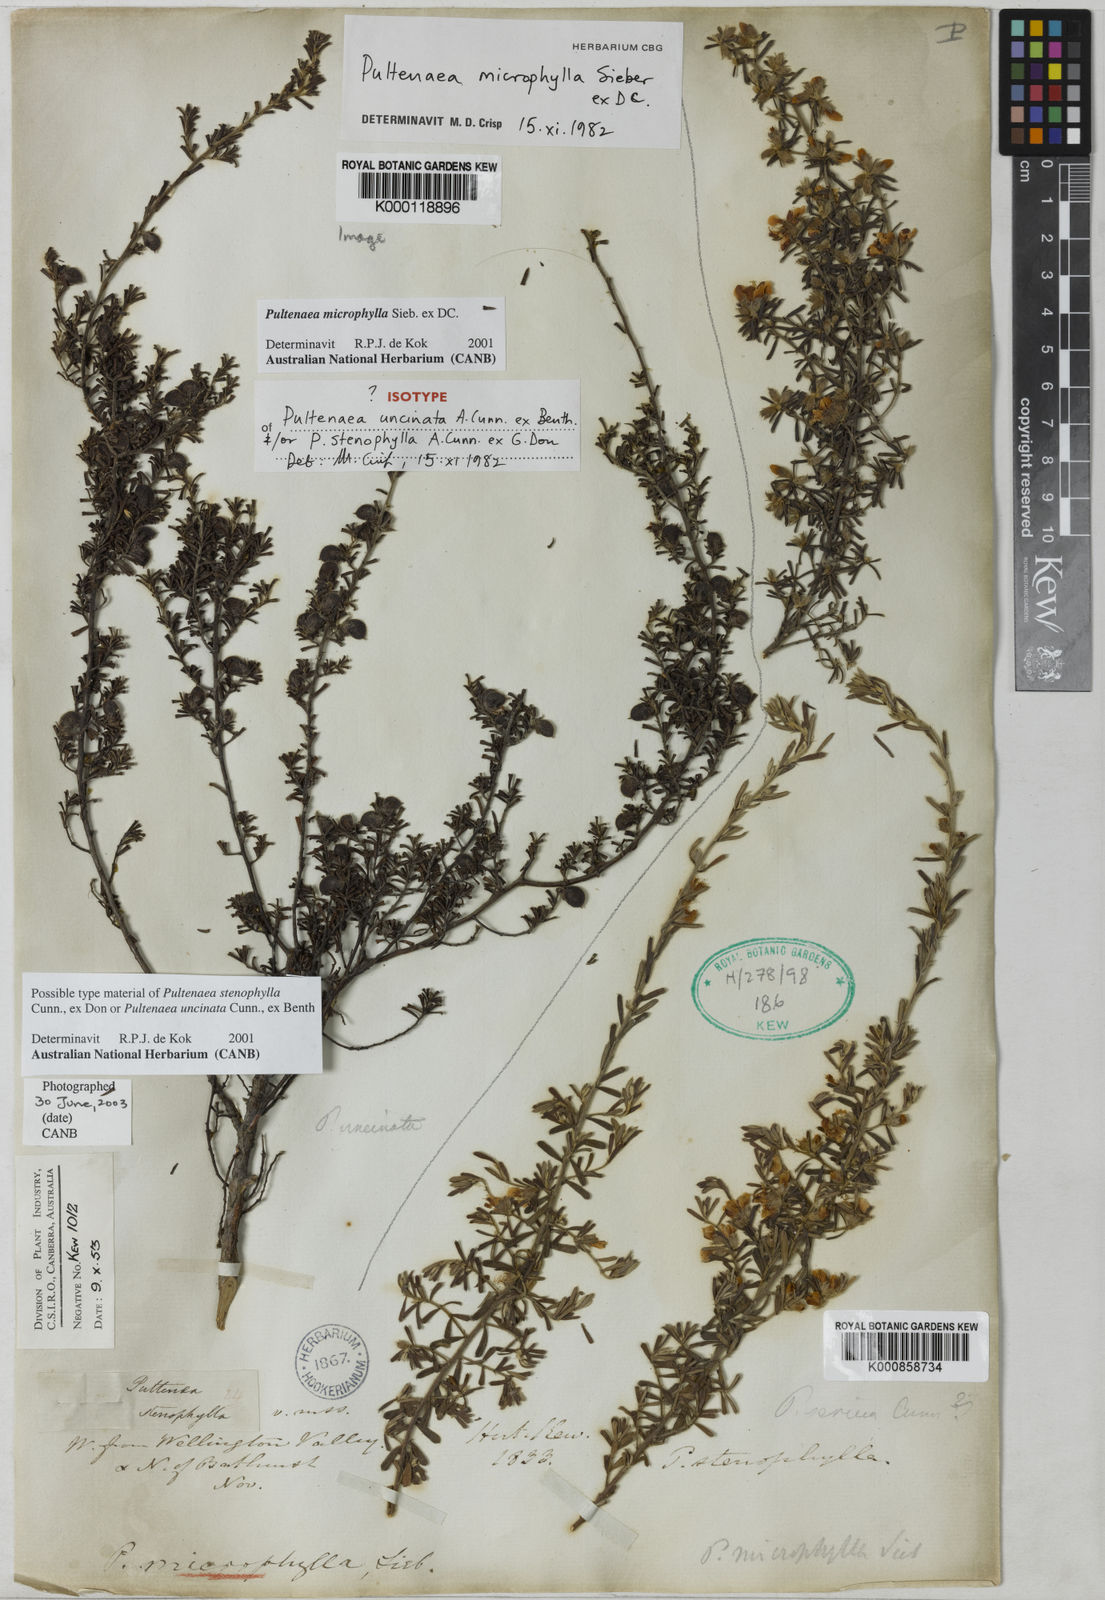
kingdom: Plantae
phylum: Tracheophyta
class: Magnoliopsida
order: Fabales
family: Fabaceae
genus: Pultenaea
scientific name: Pultenaea microphylla
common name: Spreading bush-pea
